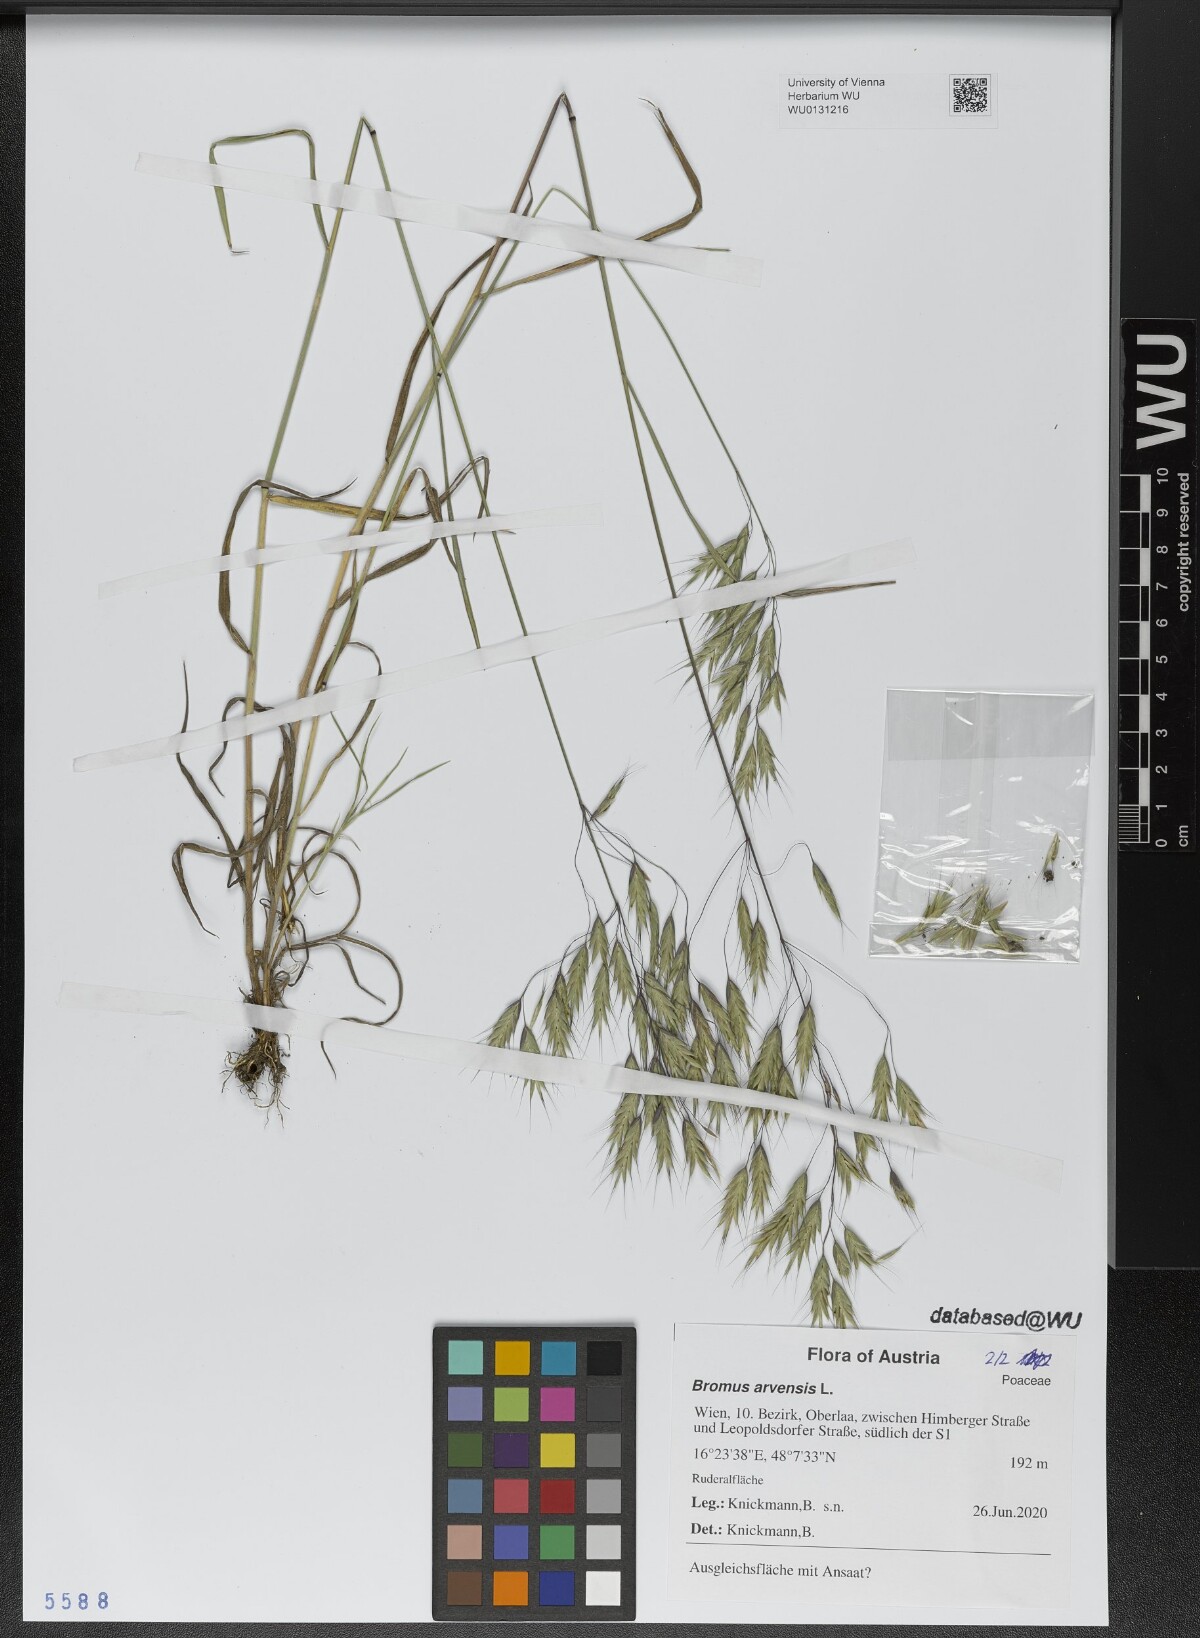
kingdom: Plantae
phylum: Tracheophyta
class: Liliopsida
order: Poales
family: Poaceae
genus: Bromus
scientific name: Bromus arvensis
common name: Field brome
